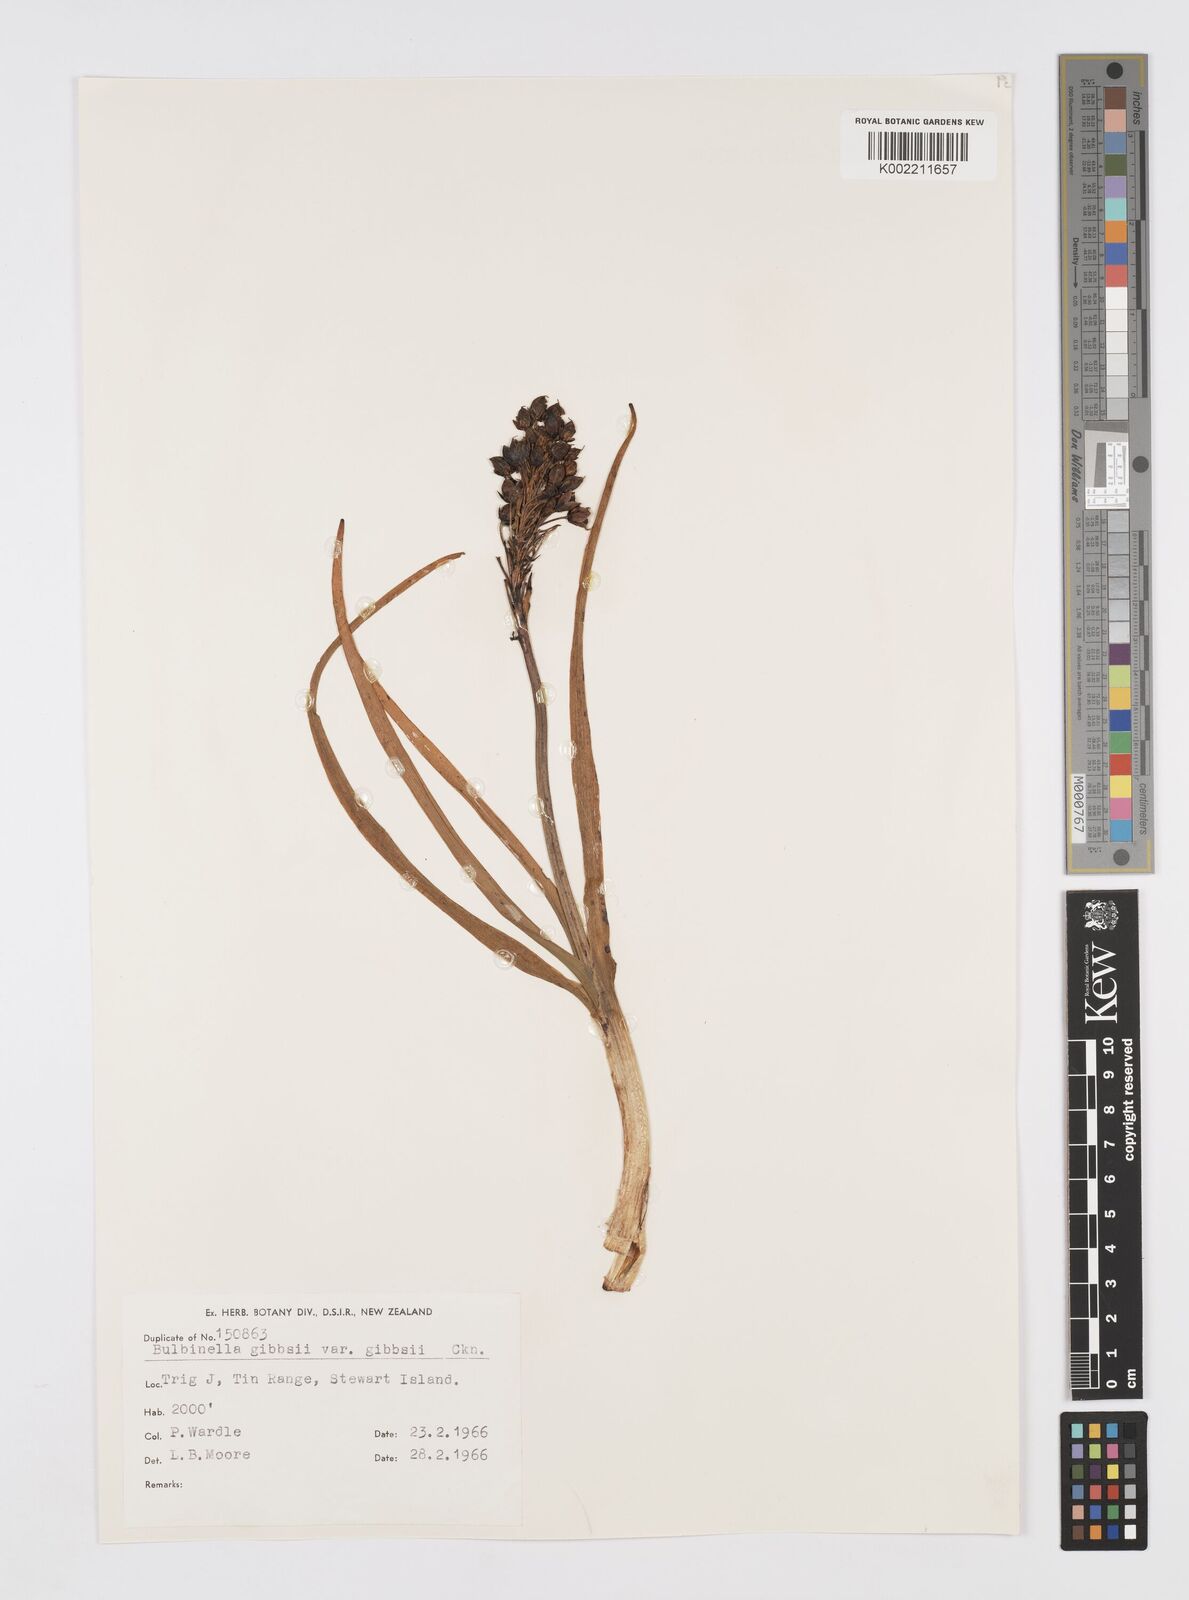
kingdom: Plantae
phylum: Tracheophyta
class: Liliopsida
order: Asparagales
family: Asphodelaceae
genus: Bulbinella
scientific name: Bulbinella gibbsii
